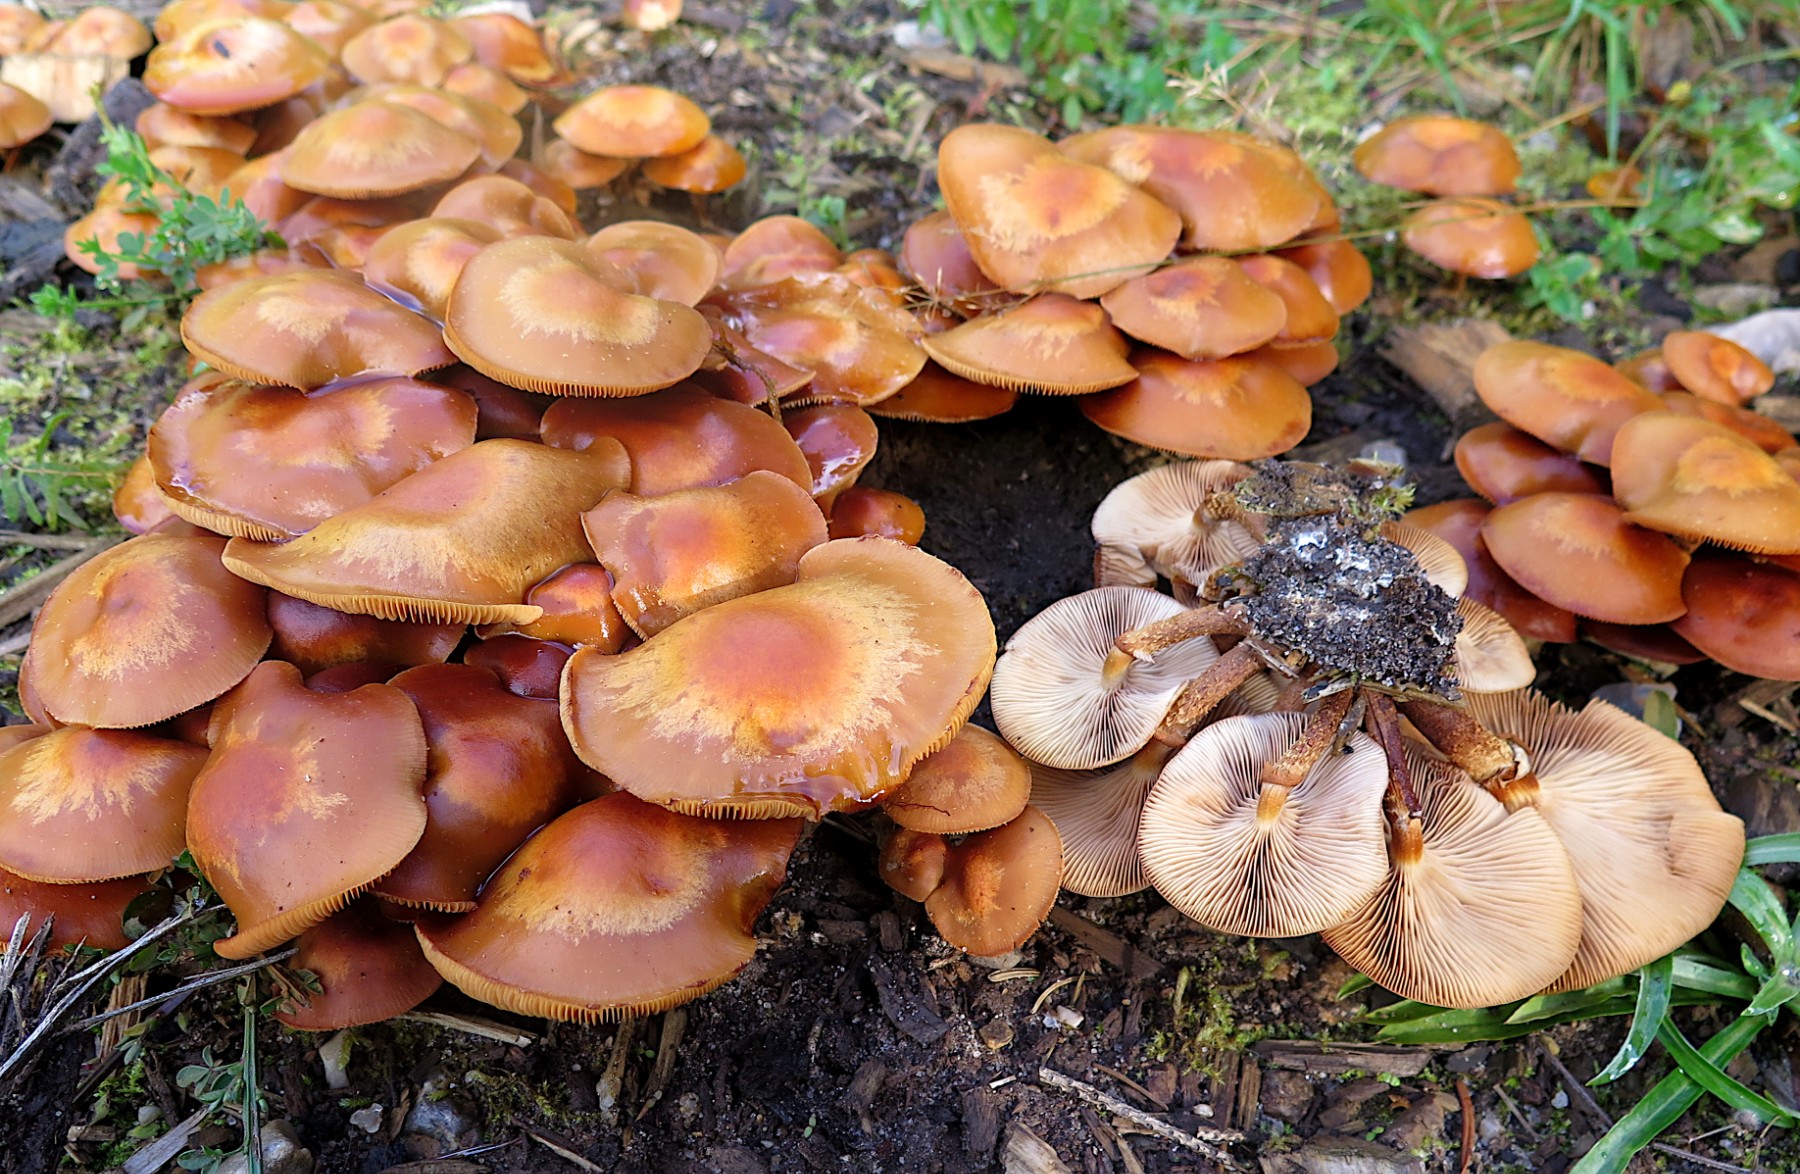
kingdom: Fungi
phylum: Basidiomycota
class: Agaricomycetes
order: Agaricales
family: Strophariaceae
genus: Kuehneromyces
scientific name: Kuehneromyces mutabilis
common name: foranderlig skælhat
